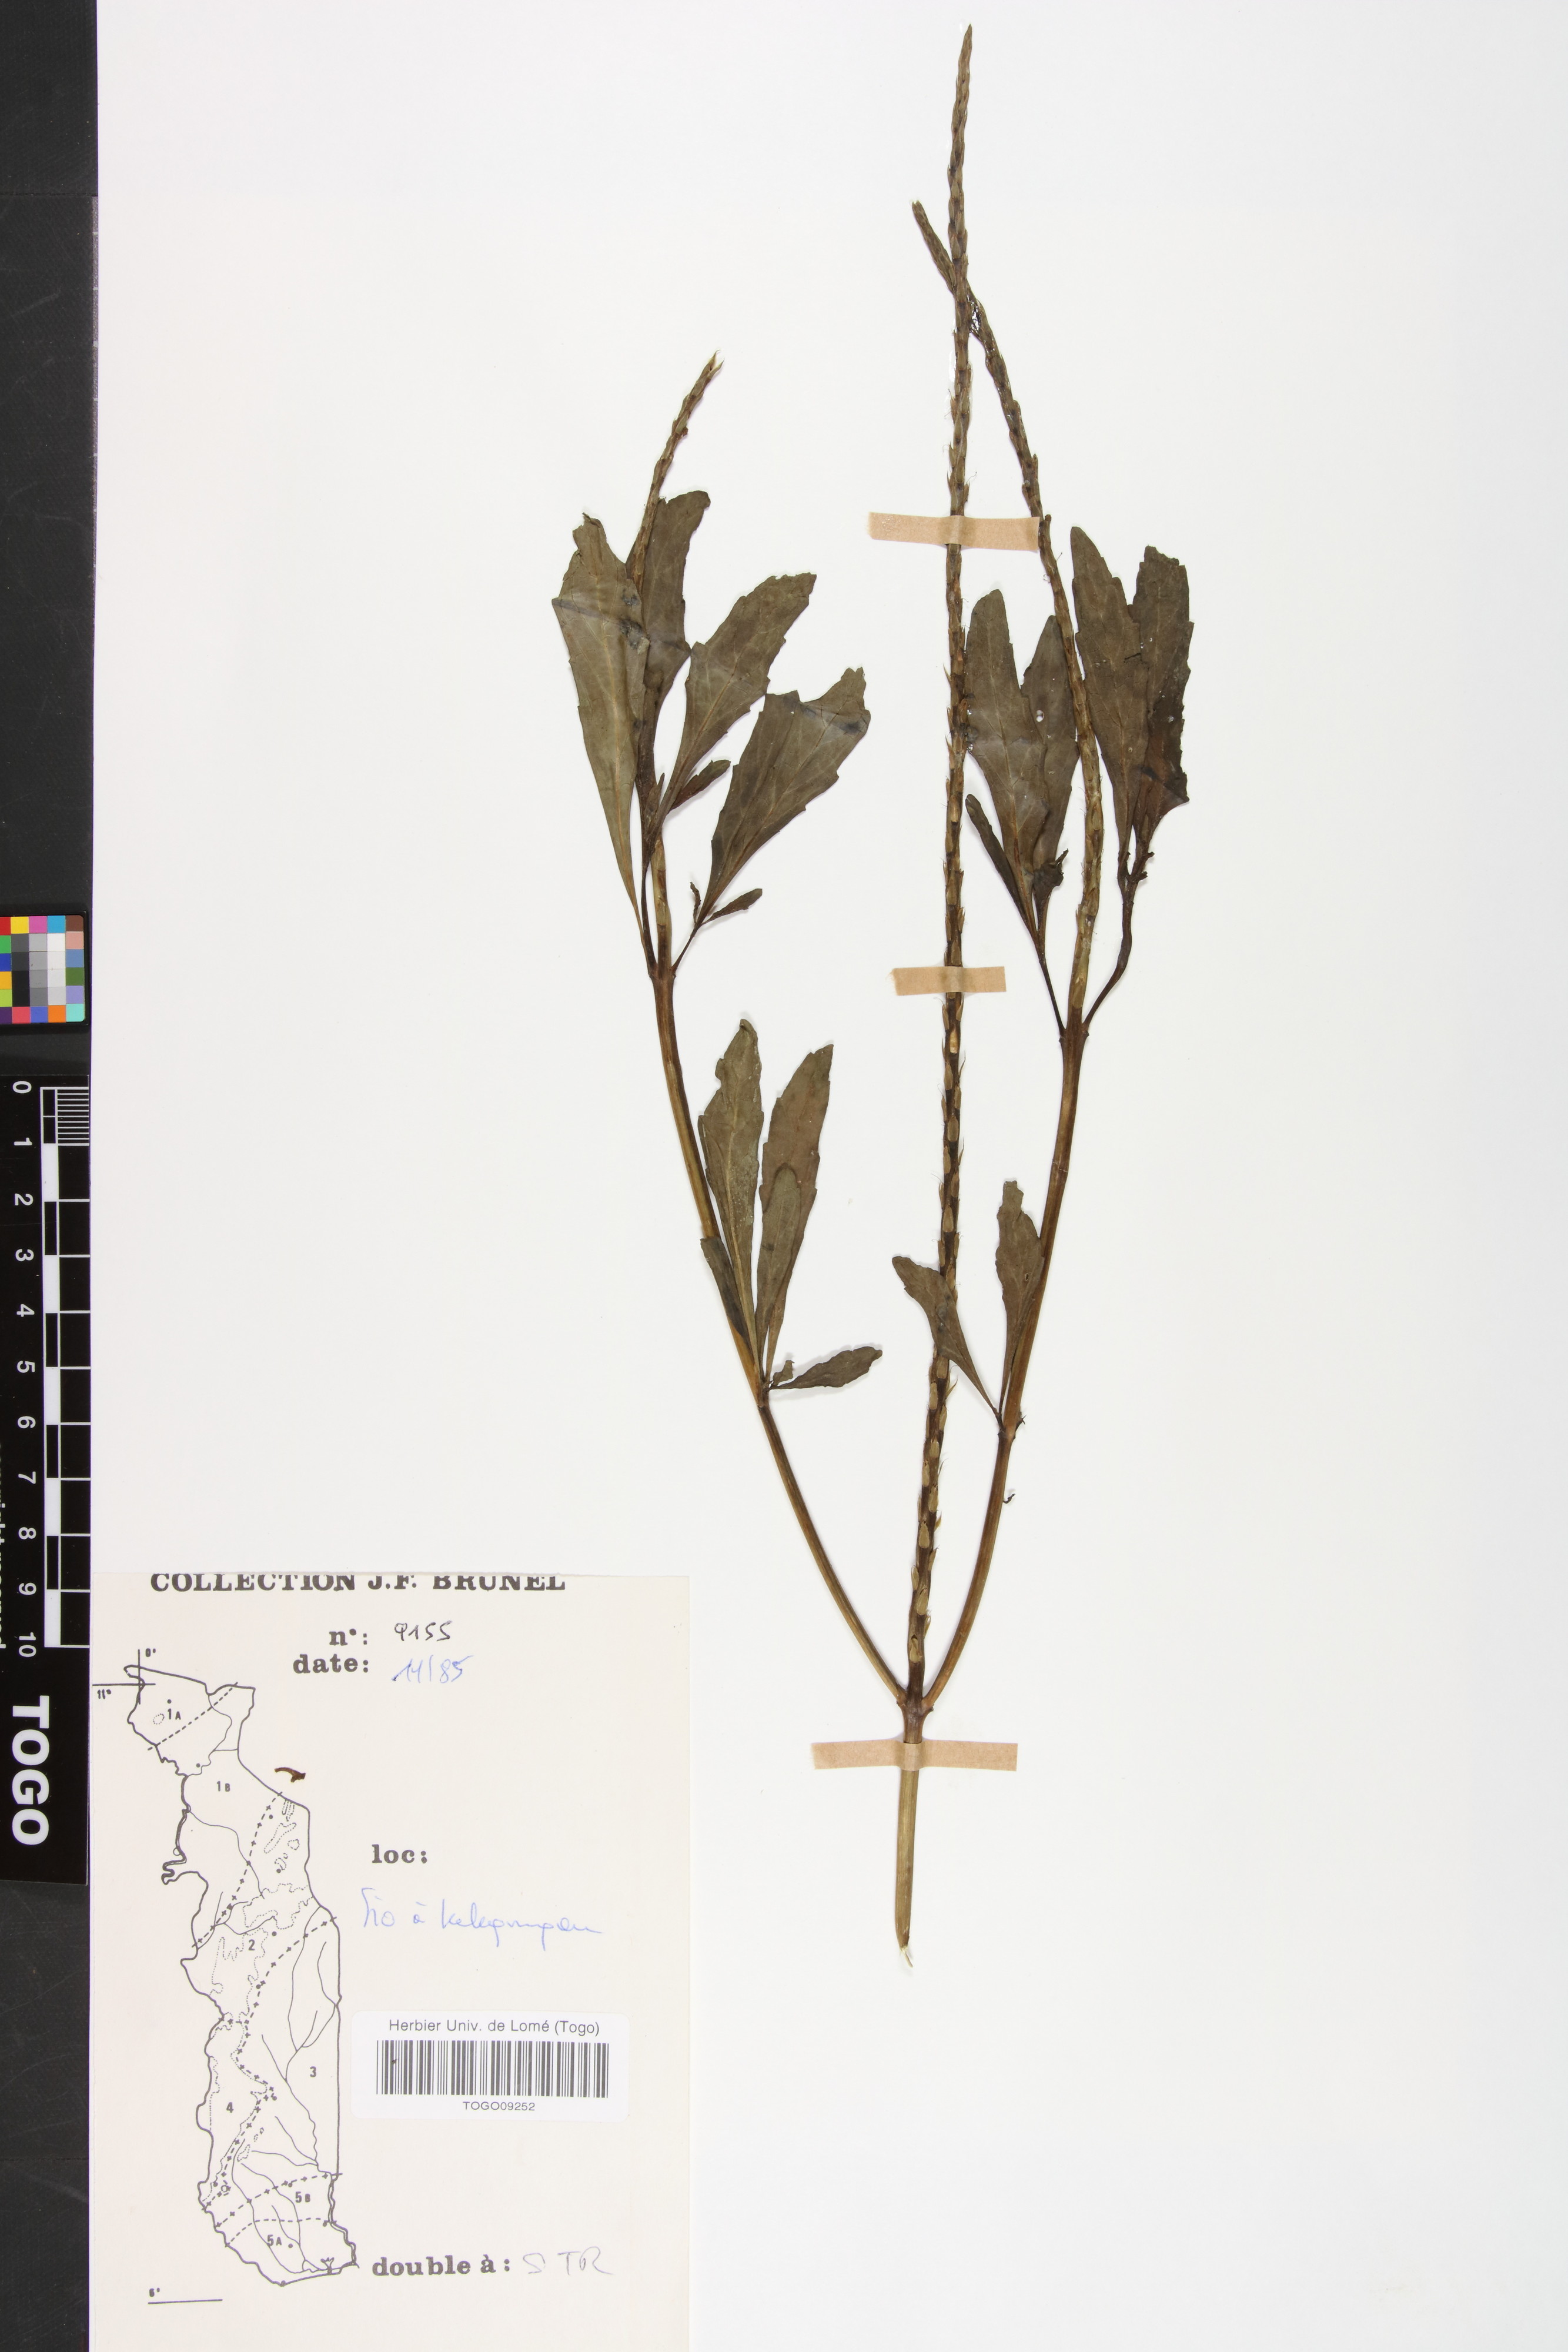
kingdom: Plantae
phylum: Tracheophyta
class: Magnoliopsida
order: Lamiales
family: Verbenaceae
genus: Stachytarpheta
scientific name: Stachytarpheta indica
